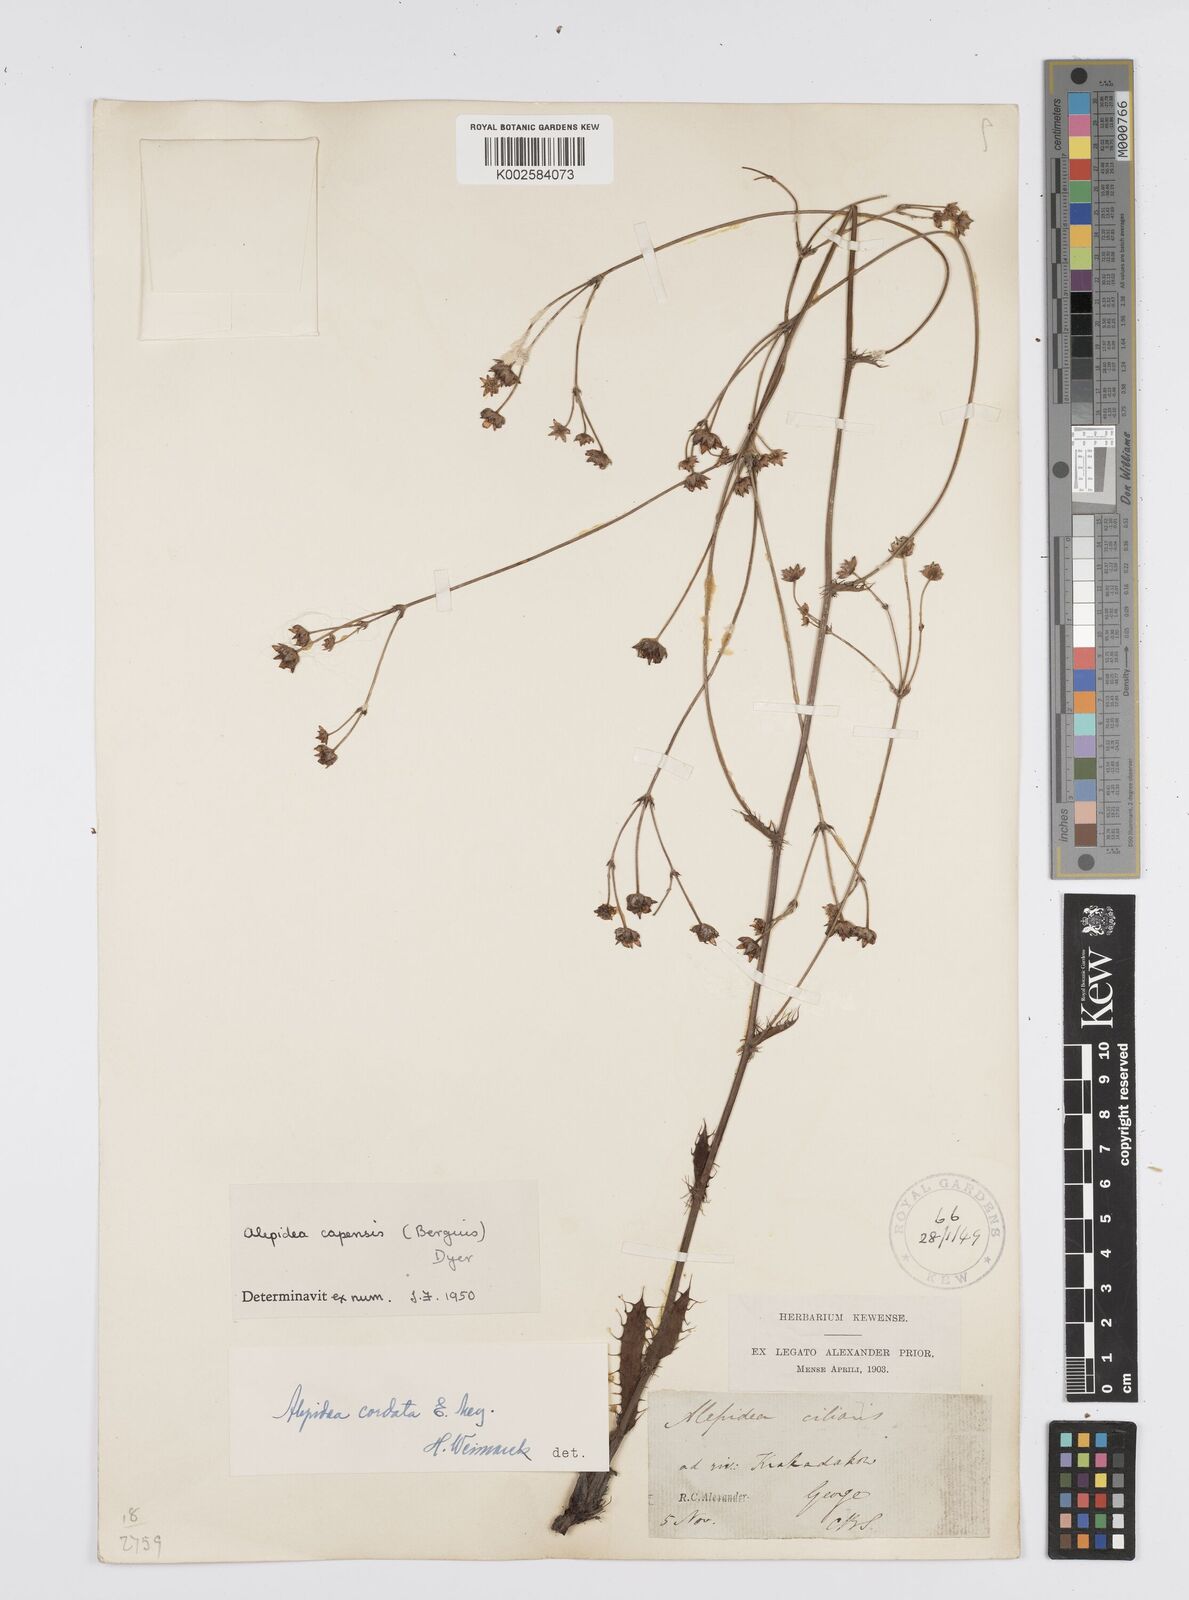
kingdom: Plantae
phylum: Tracheophyta
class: Magnoliopsida
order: Apiales
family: Apiaceae
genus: Alepidea
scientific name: Alepidea capensis
